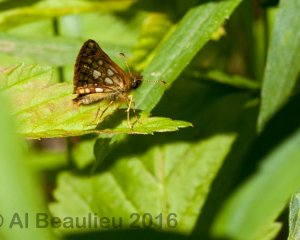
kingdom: Animalia
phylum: Arthropoda
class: Insecta
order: Lepidoptera
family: Hesperiidae
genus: Carterocephalus
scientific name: Carterocephalus palaemon
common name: Chequered Skipper
